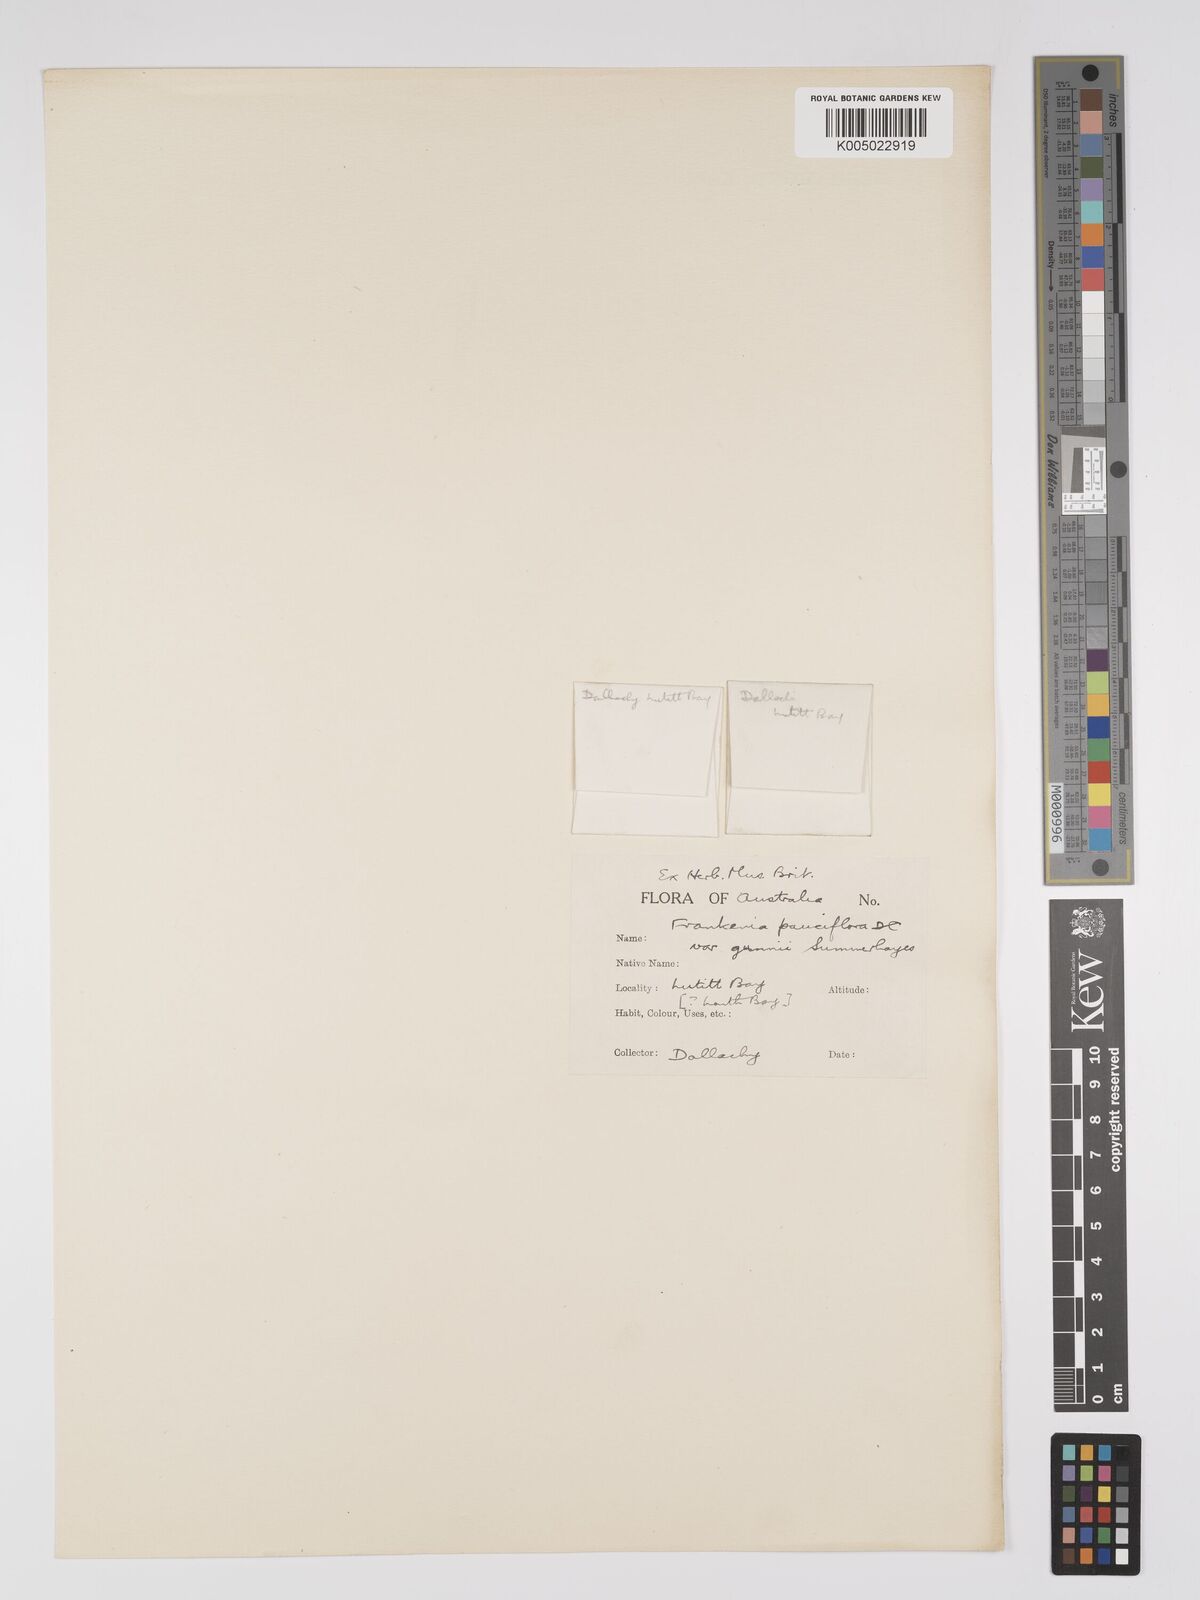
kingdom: Plantae
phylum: Tracheophyta
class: Magnoliopsida
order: Caryophyllales
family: Frankeniaceae
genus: Frankenia
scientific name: Frankenia pauciflora
